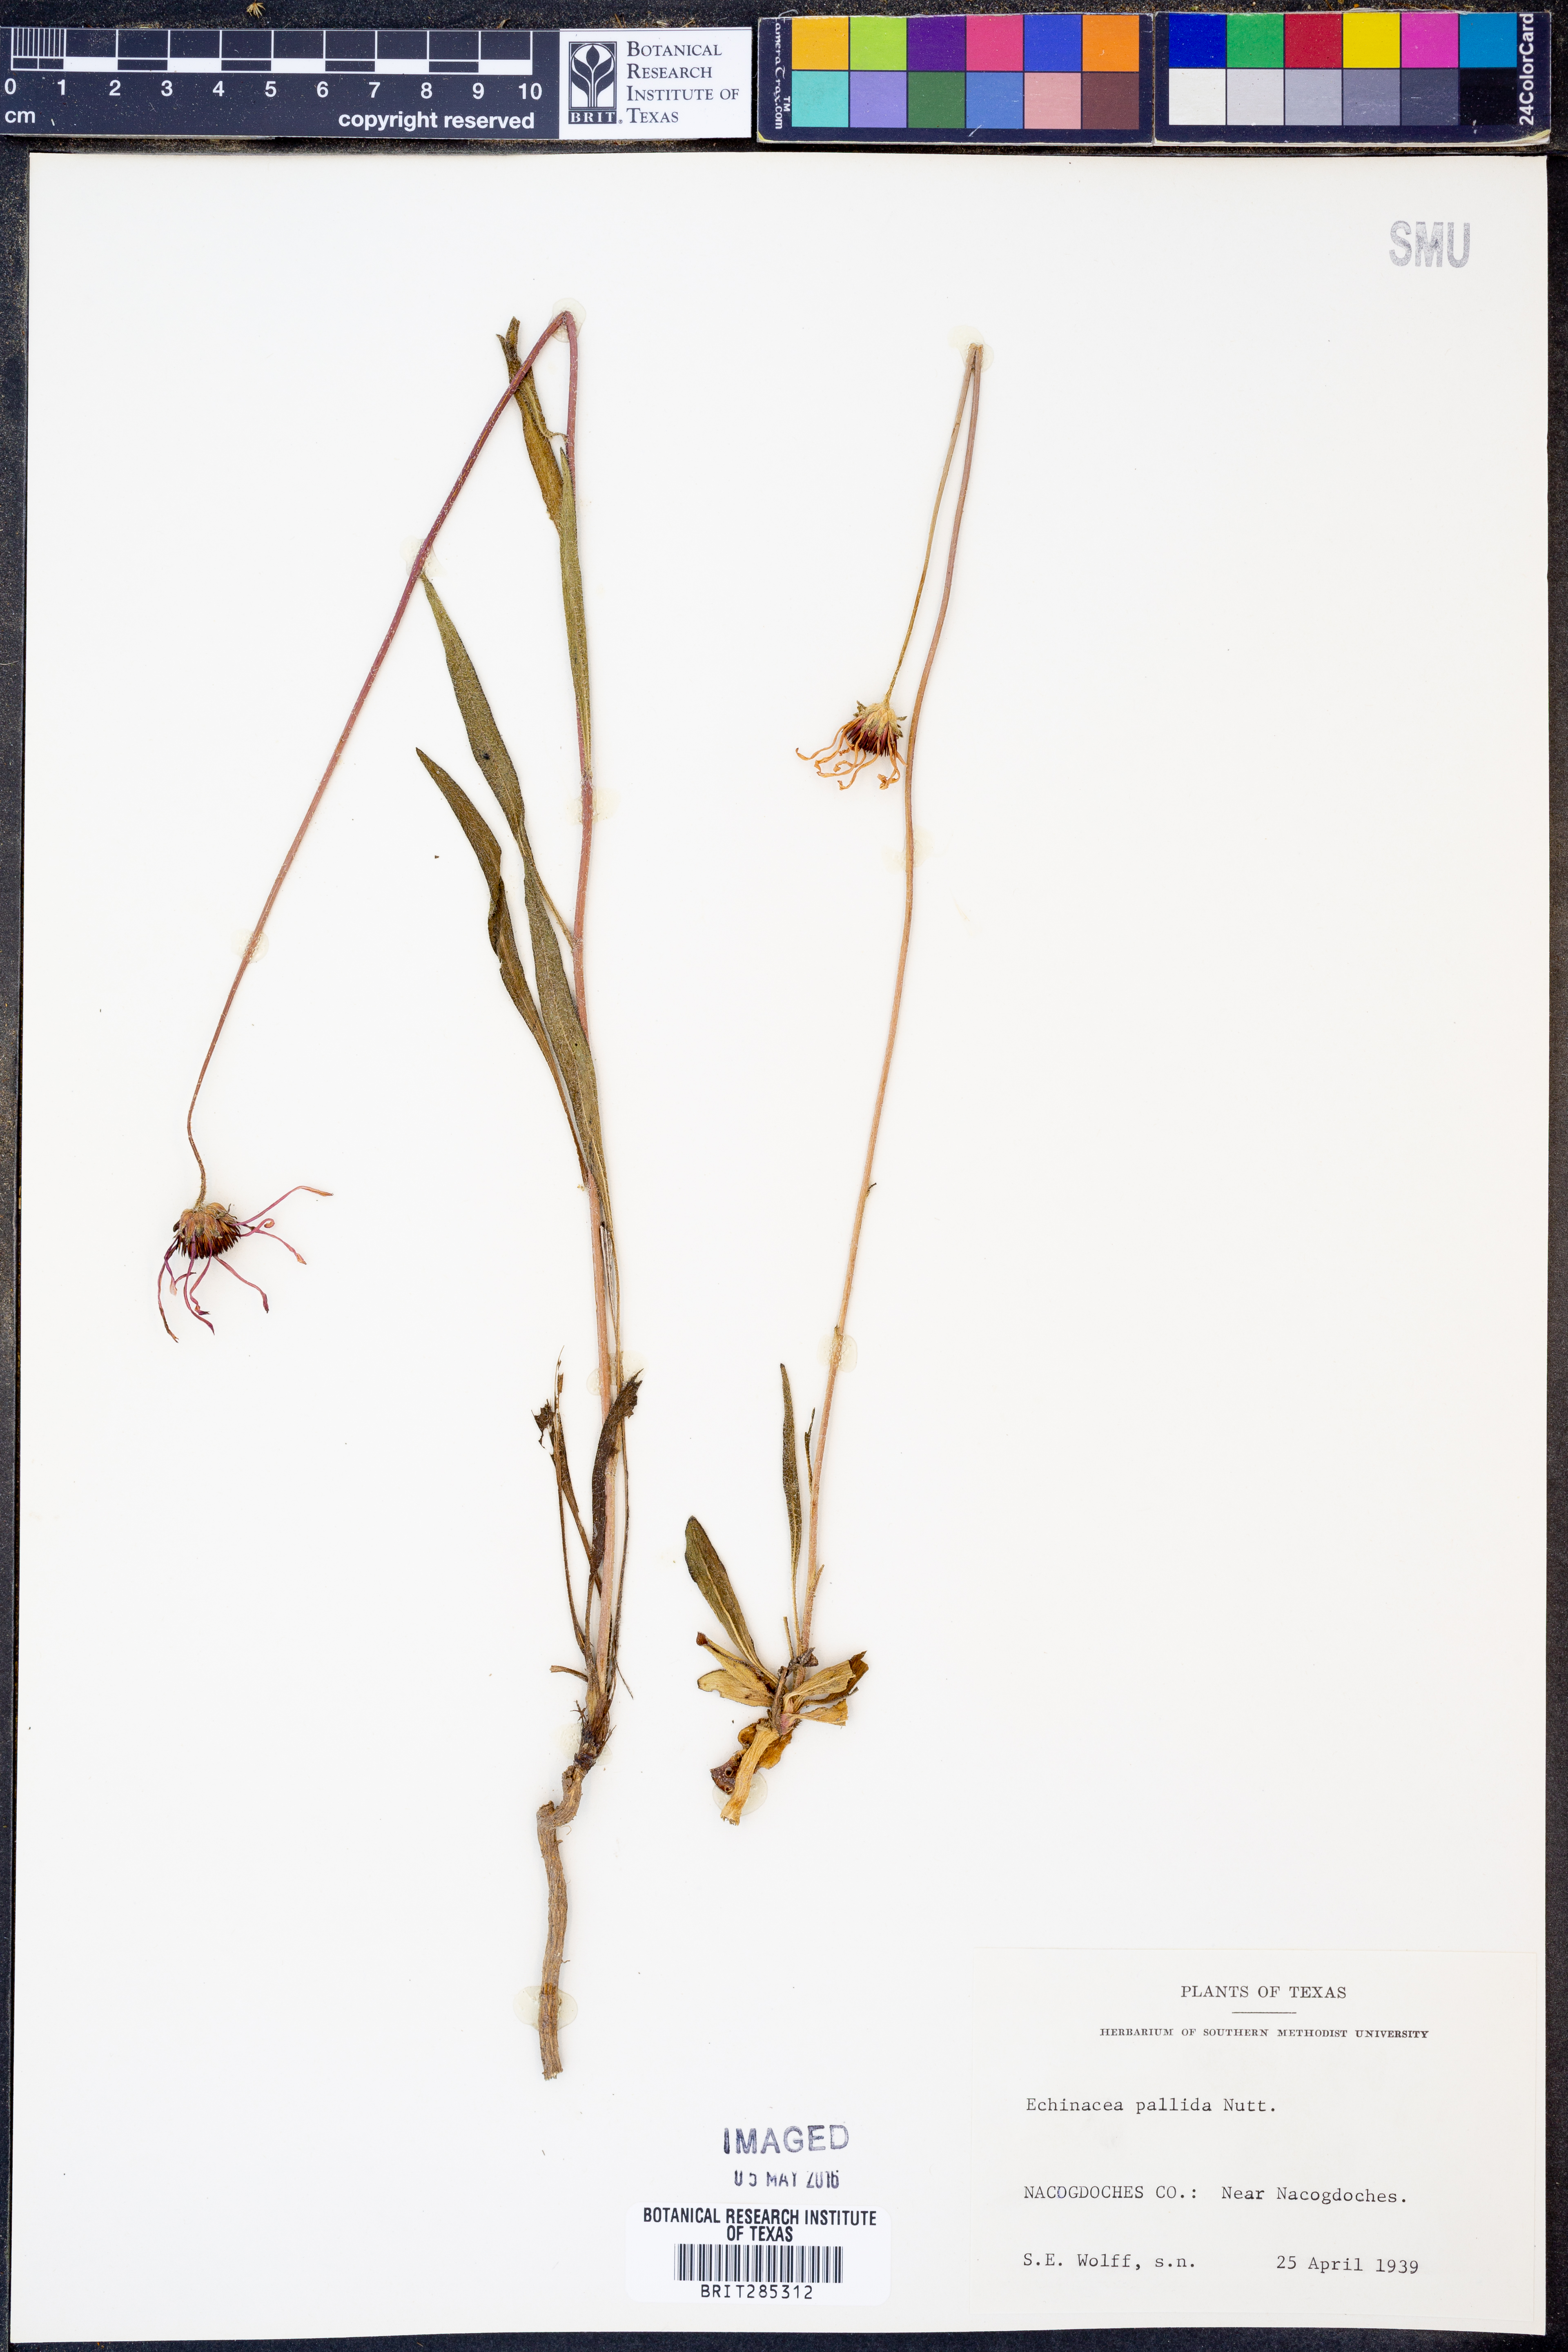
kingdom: Plantae
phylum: Tracheophyta
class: Magnoliopsida
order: Asterales
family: Asteraceae
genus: Echinacea
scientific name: Echinacea pallida
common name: Pale echinacea
